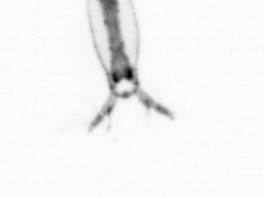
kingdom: Animalia
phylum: Arthropoda
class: Copepoda
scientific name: Copepoda
